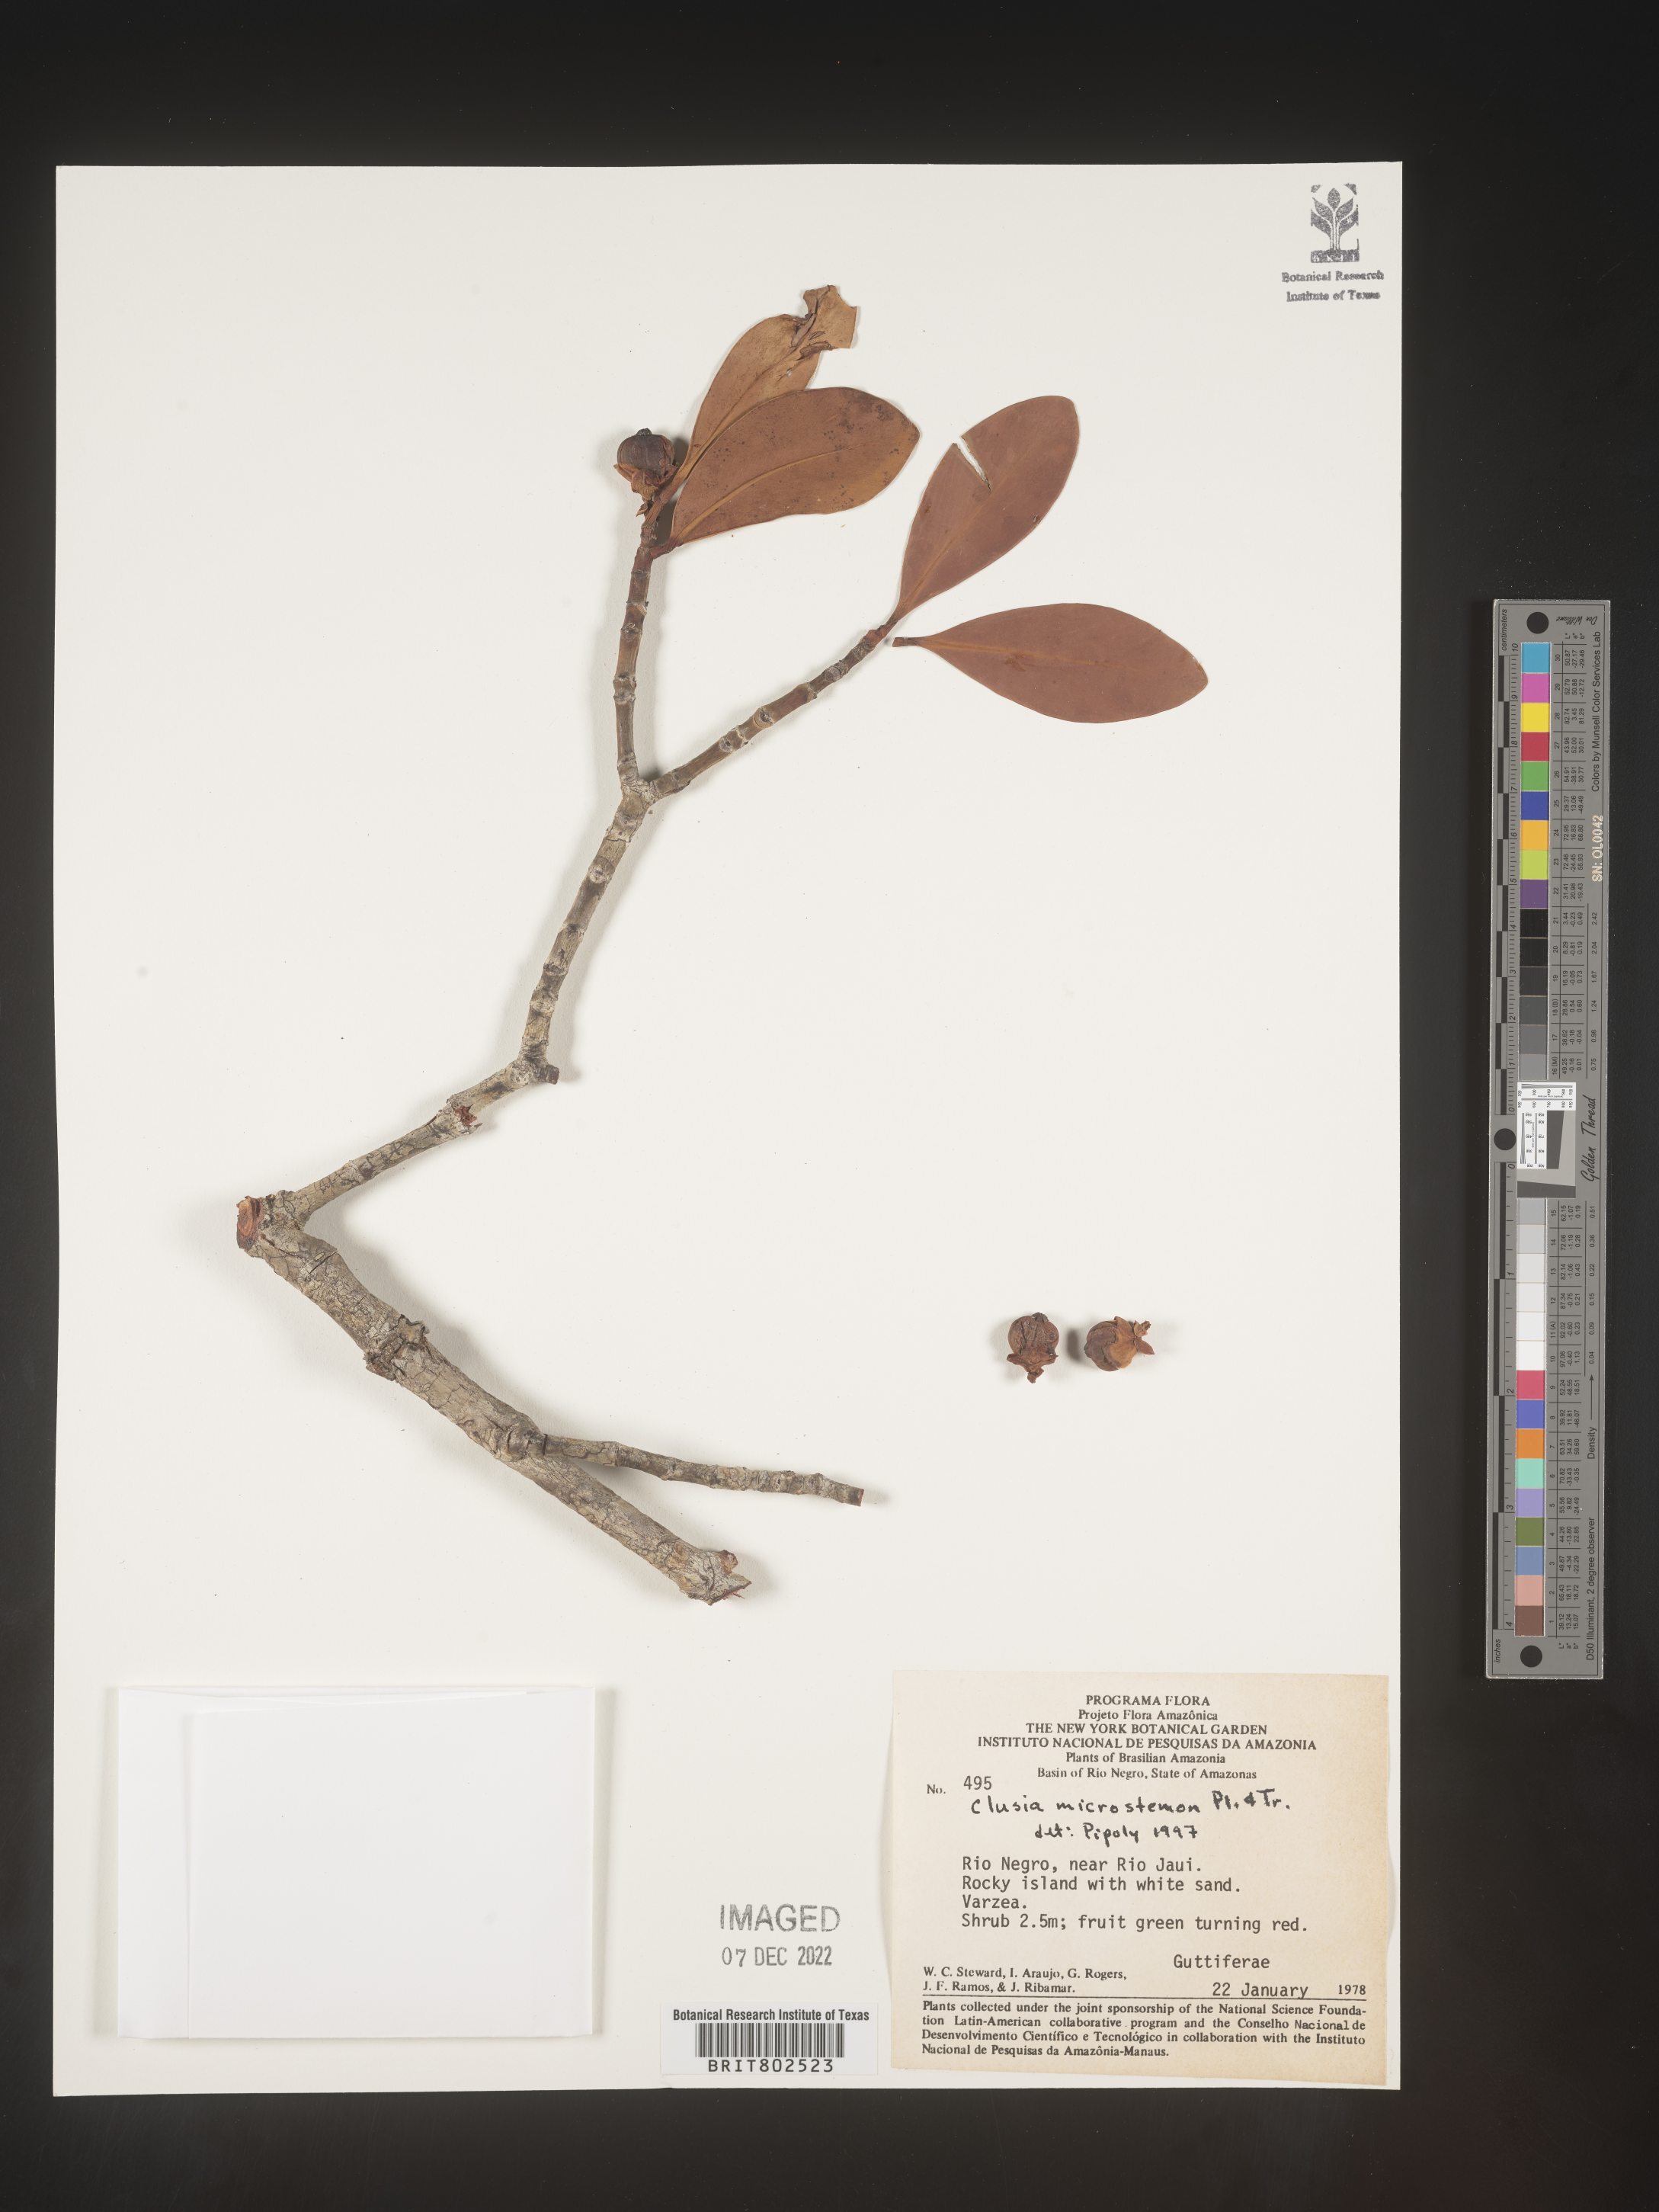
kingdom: Plantae
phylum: Tracheophyta
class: Magnoliopsida
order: Malpighiales
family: Clusiaceae
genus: Clusia
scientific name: Clusia microstemon
